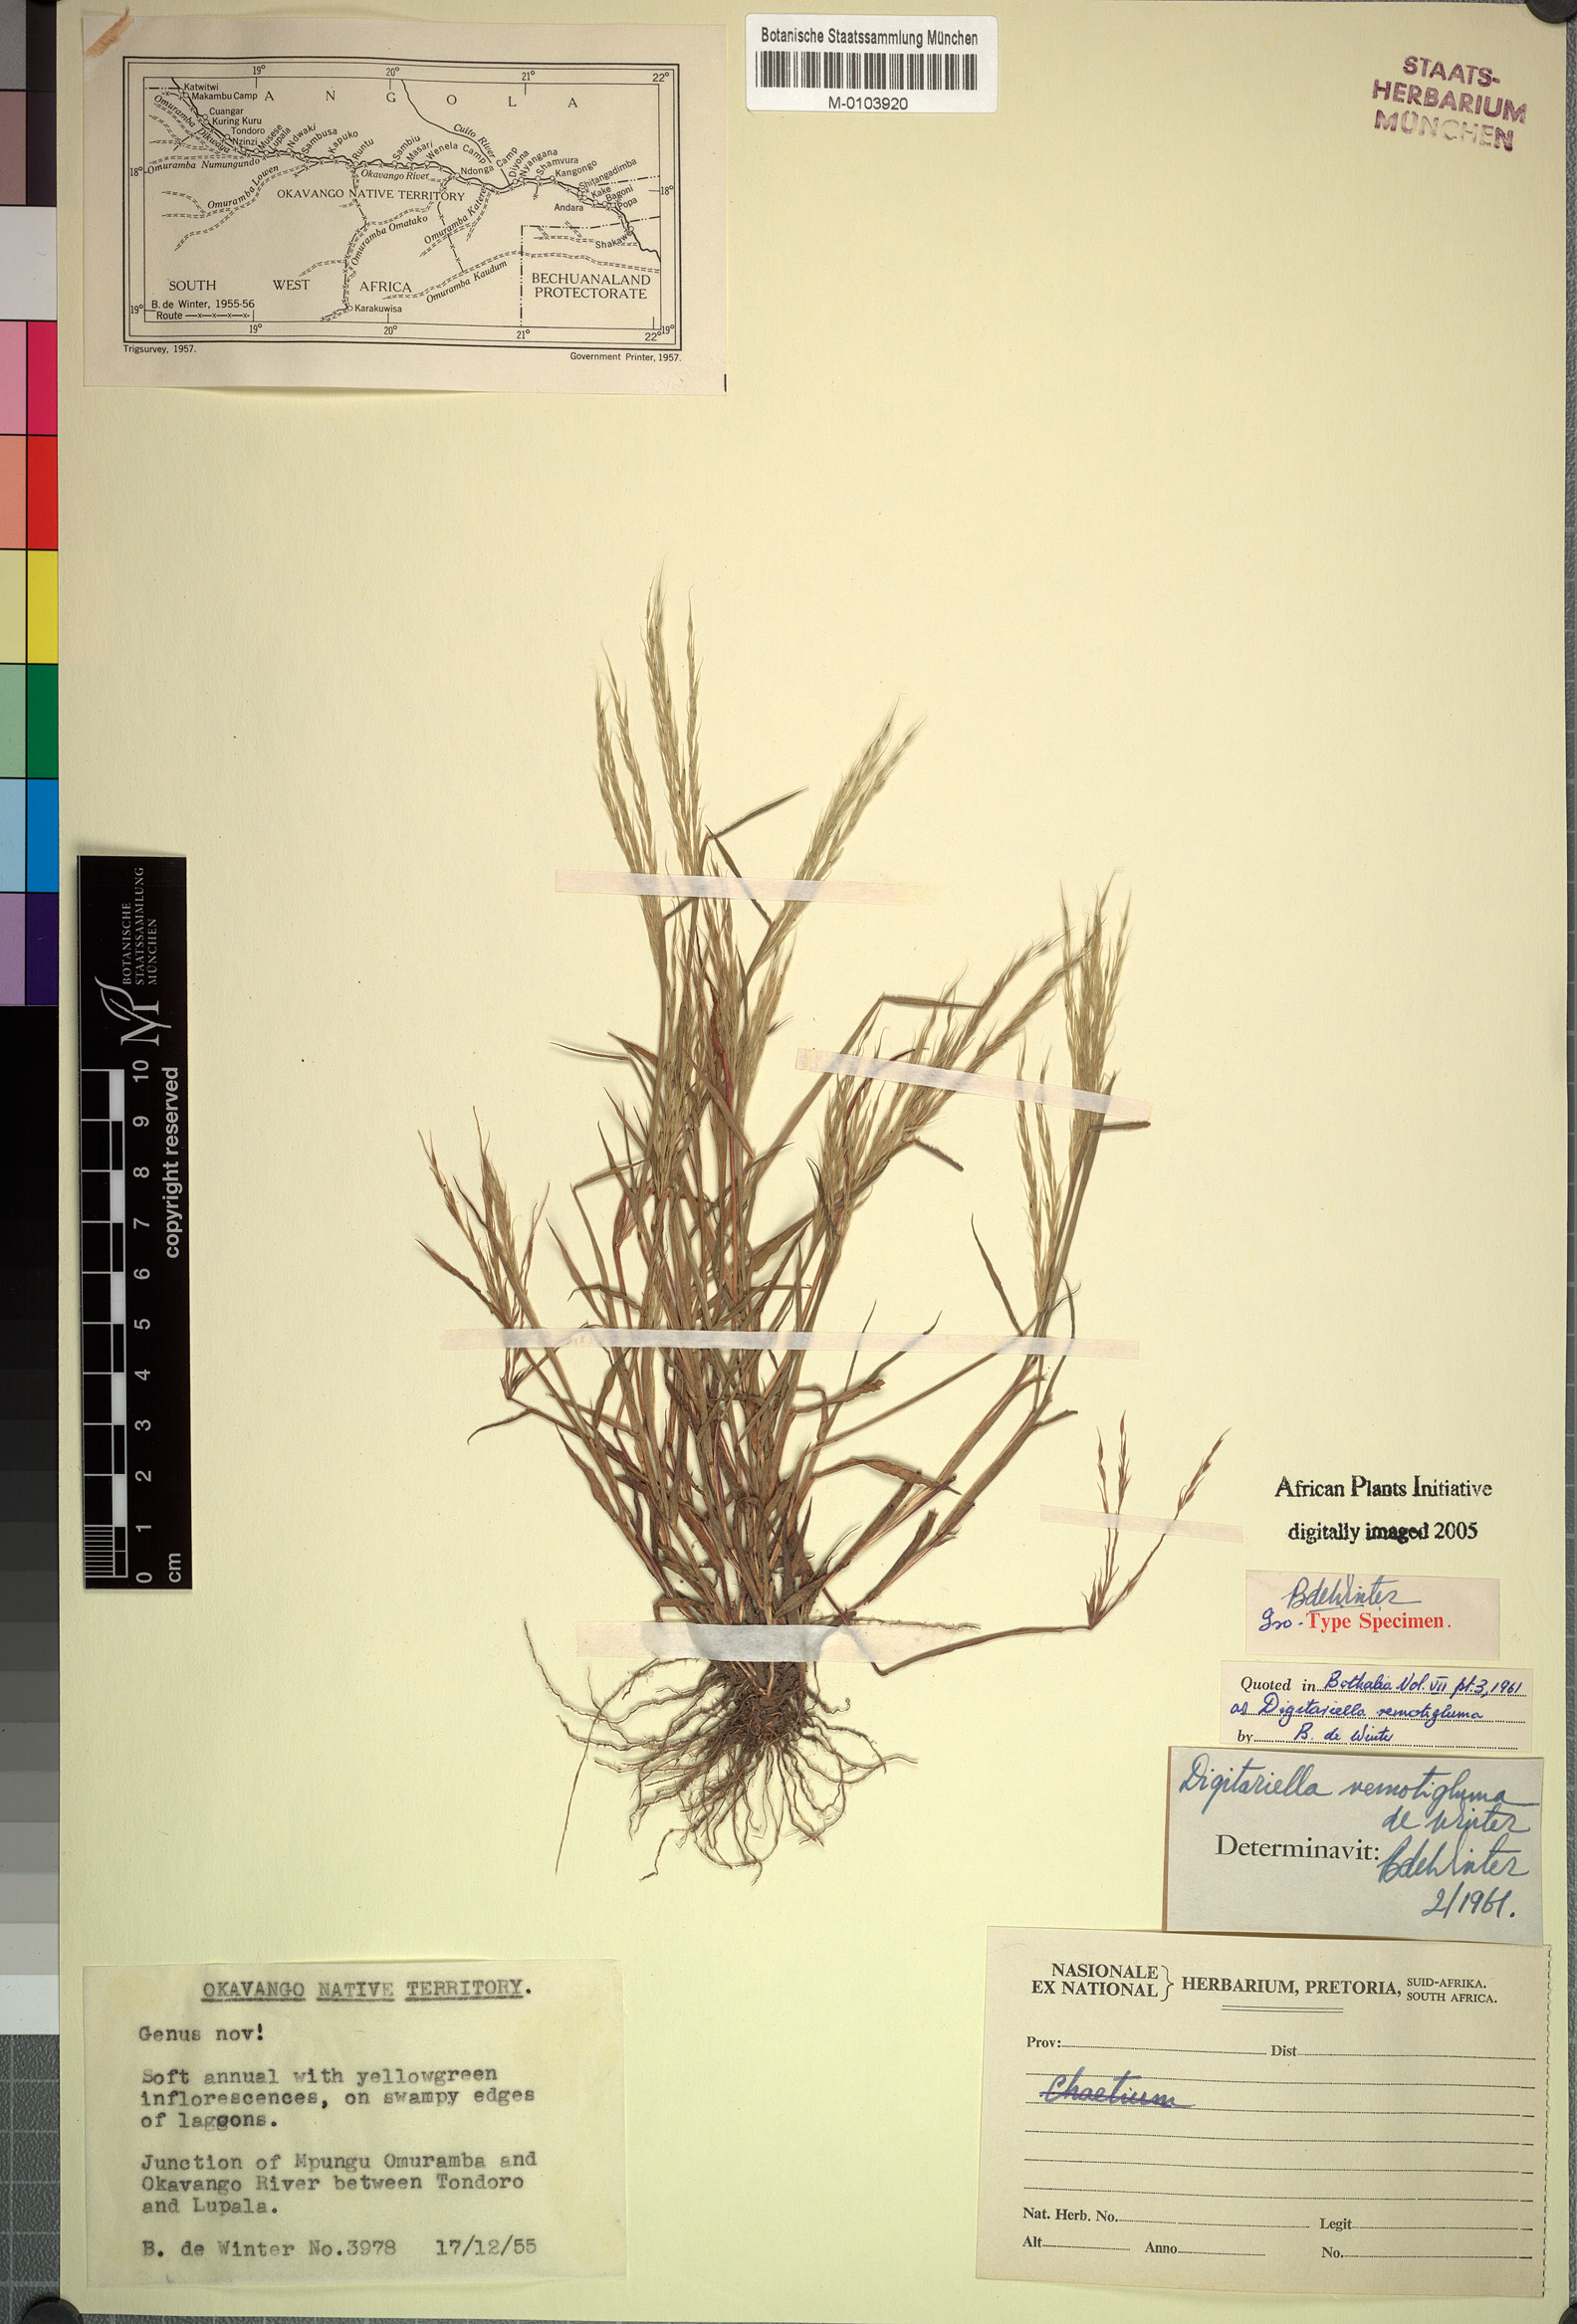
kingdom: Plantae
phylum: Tracheophyta
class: Liliopsida
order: Poales
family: Poaceae
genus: Digitaria
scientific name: Digitaria remotigluma
